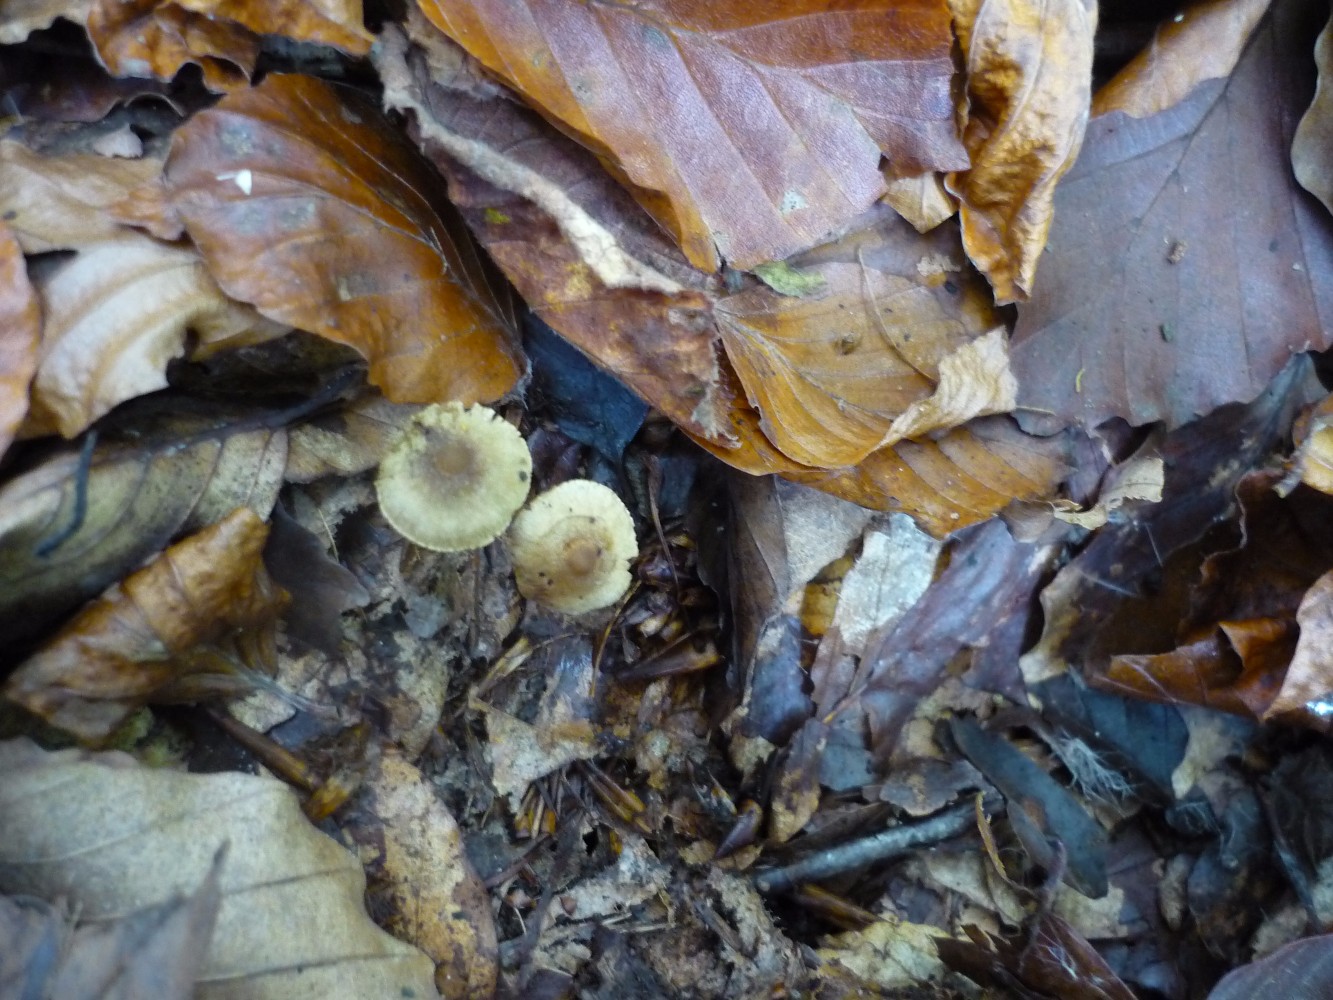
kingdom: Fungi
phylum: Basidiomycota
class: Agaricomycetes
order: Agaricales
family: Inocybaceae
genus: Inocybe
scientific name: Inocybe petiginosa
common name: liden trævlhat
